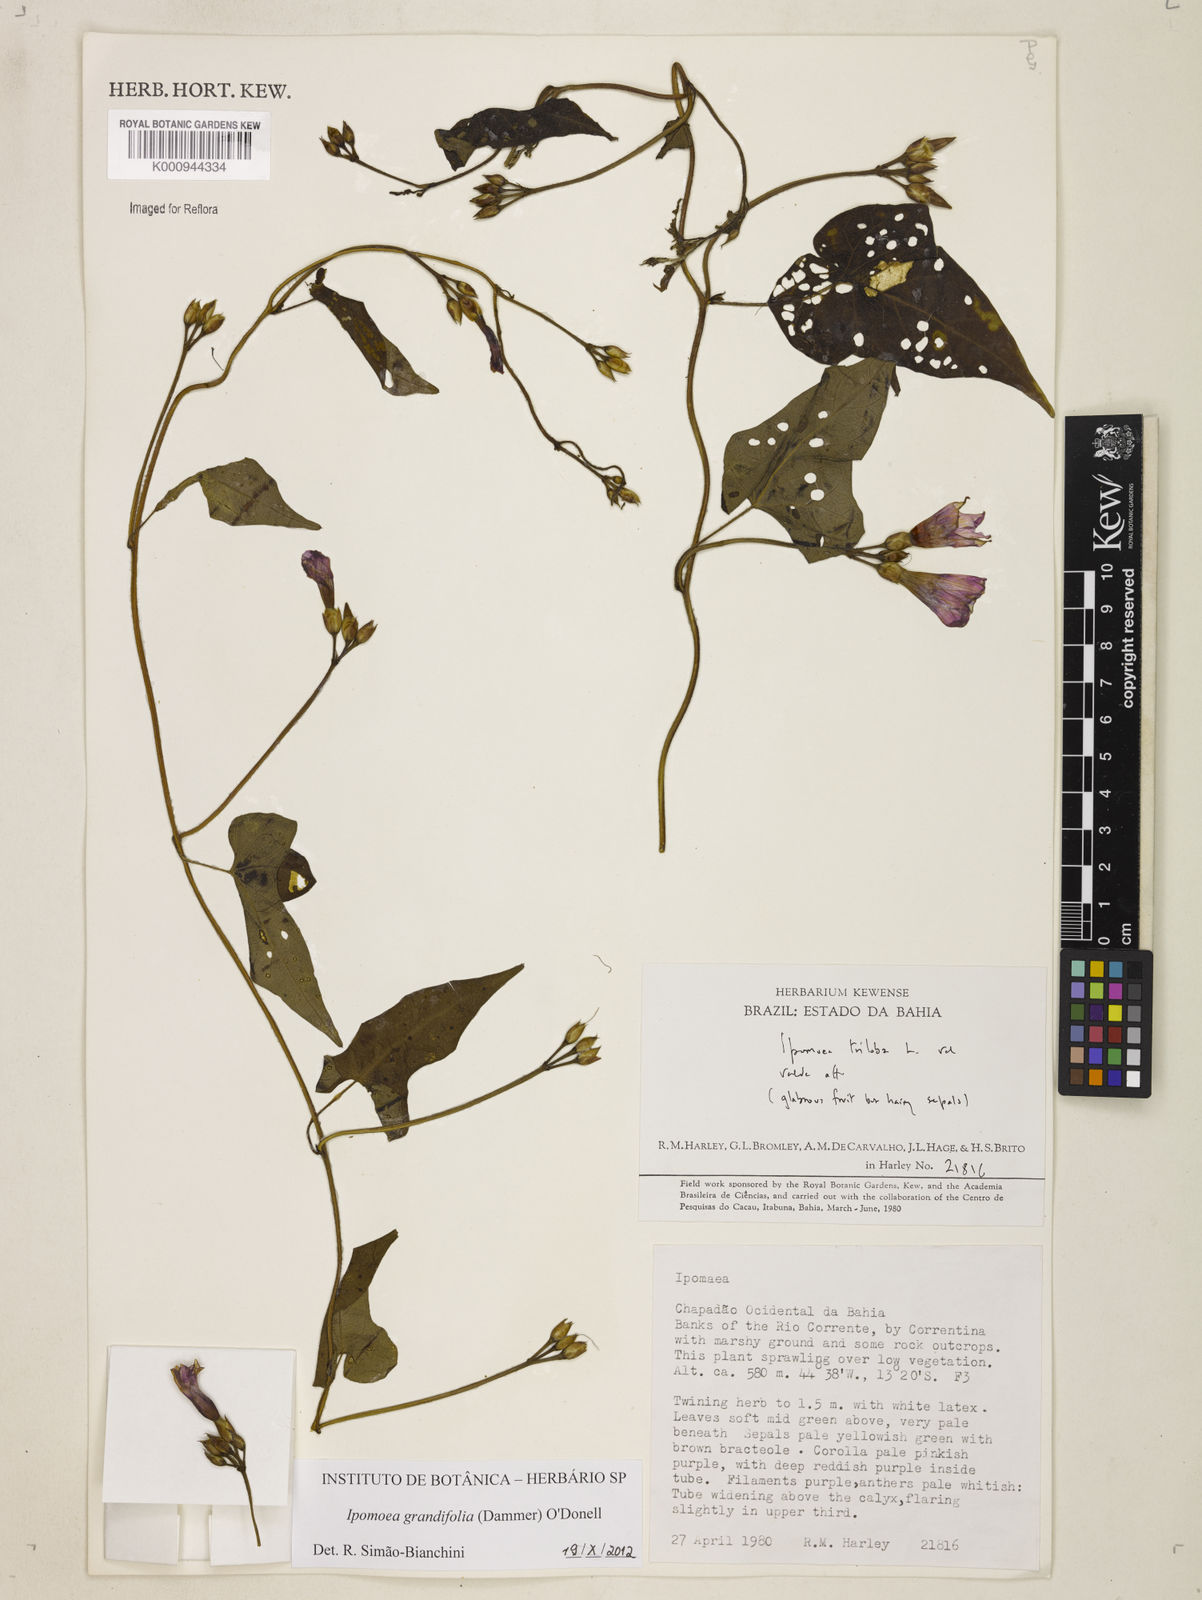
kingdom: Plantae
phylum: Tracheophyta
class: Magnoliopsida
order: Solanales
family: Convolvulaceae
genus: Ipomoea
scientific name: Ipomoea grandifolia
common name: Aiea morning glory
